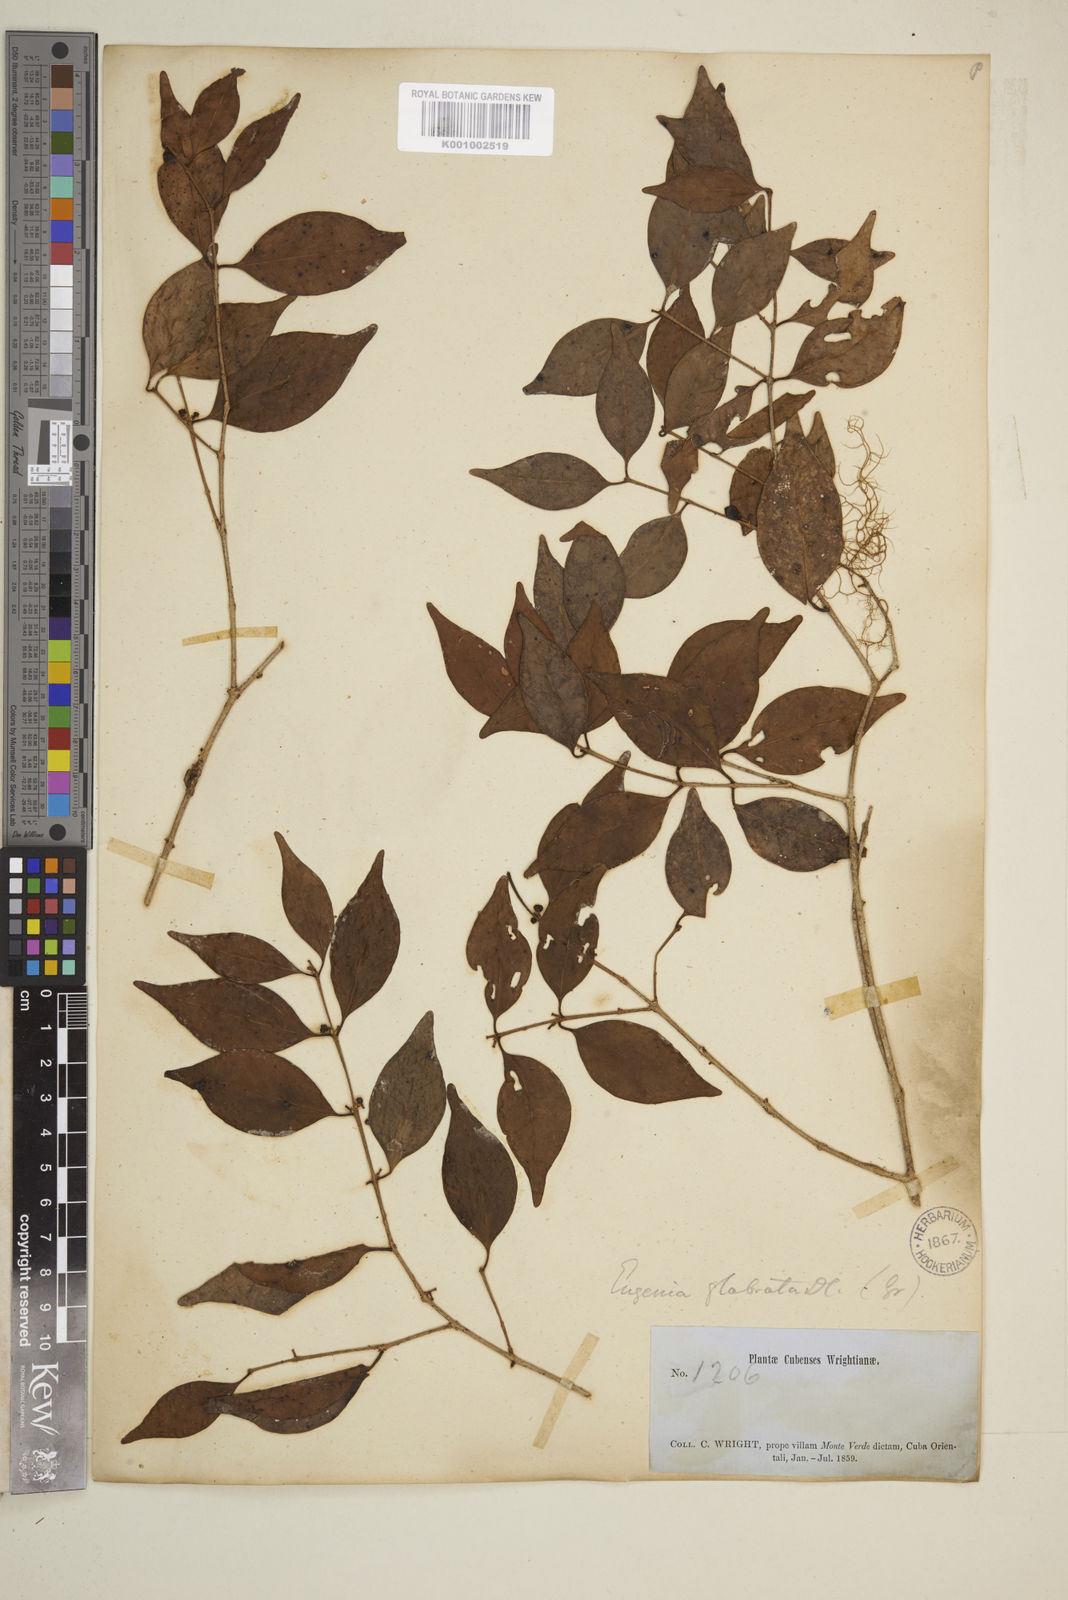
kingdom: Plantae
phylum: Tracheophyta
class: Magnoliopsida
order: Myrtales
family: Myrtaceae
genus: Eugenia
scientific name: Eugenia glabrata
